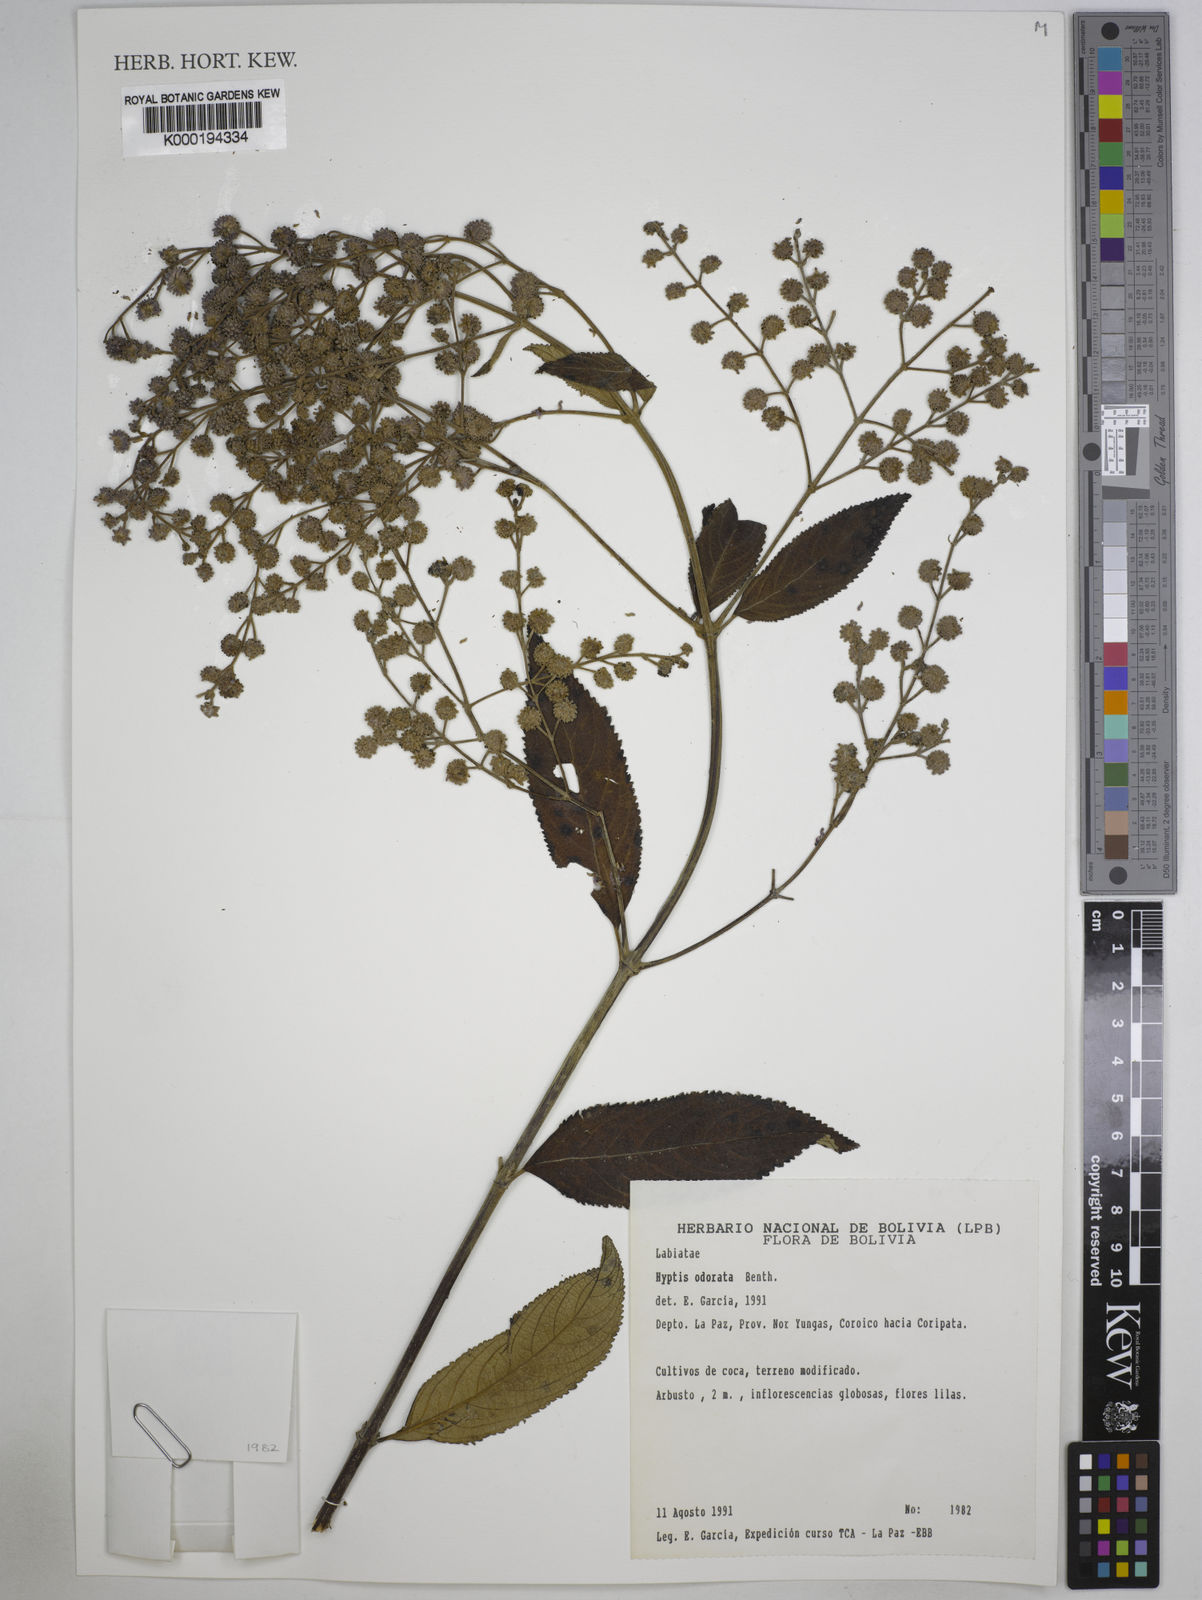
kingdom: Plantae
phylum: Tracheophyta
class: Magnoliopsida
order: Lamiales
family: Lamiaceae
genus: Hyptis
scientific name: Hyptis odorata
